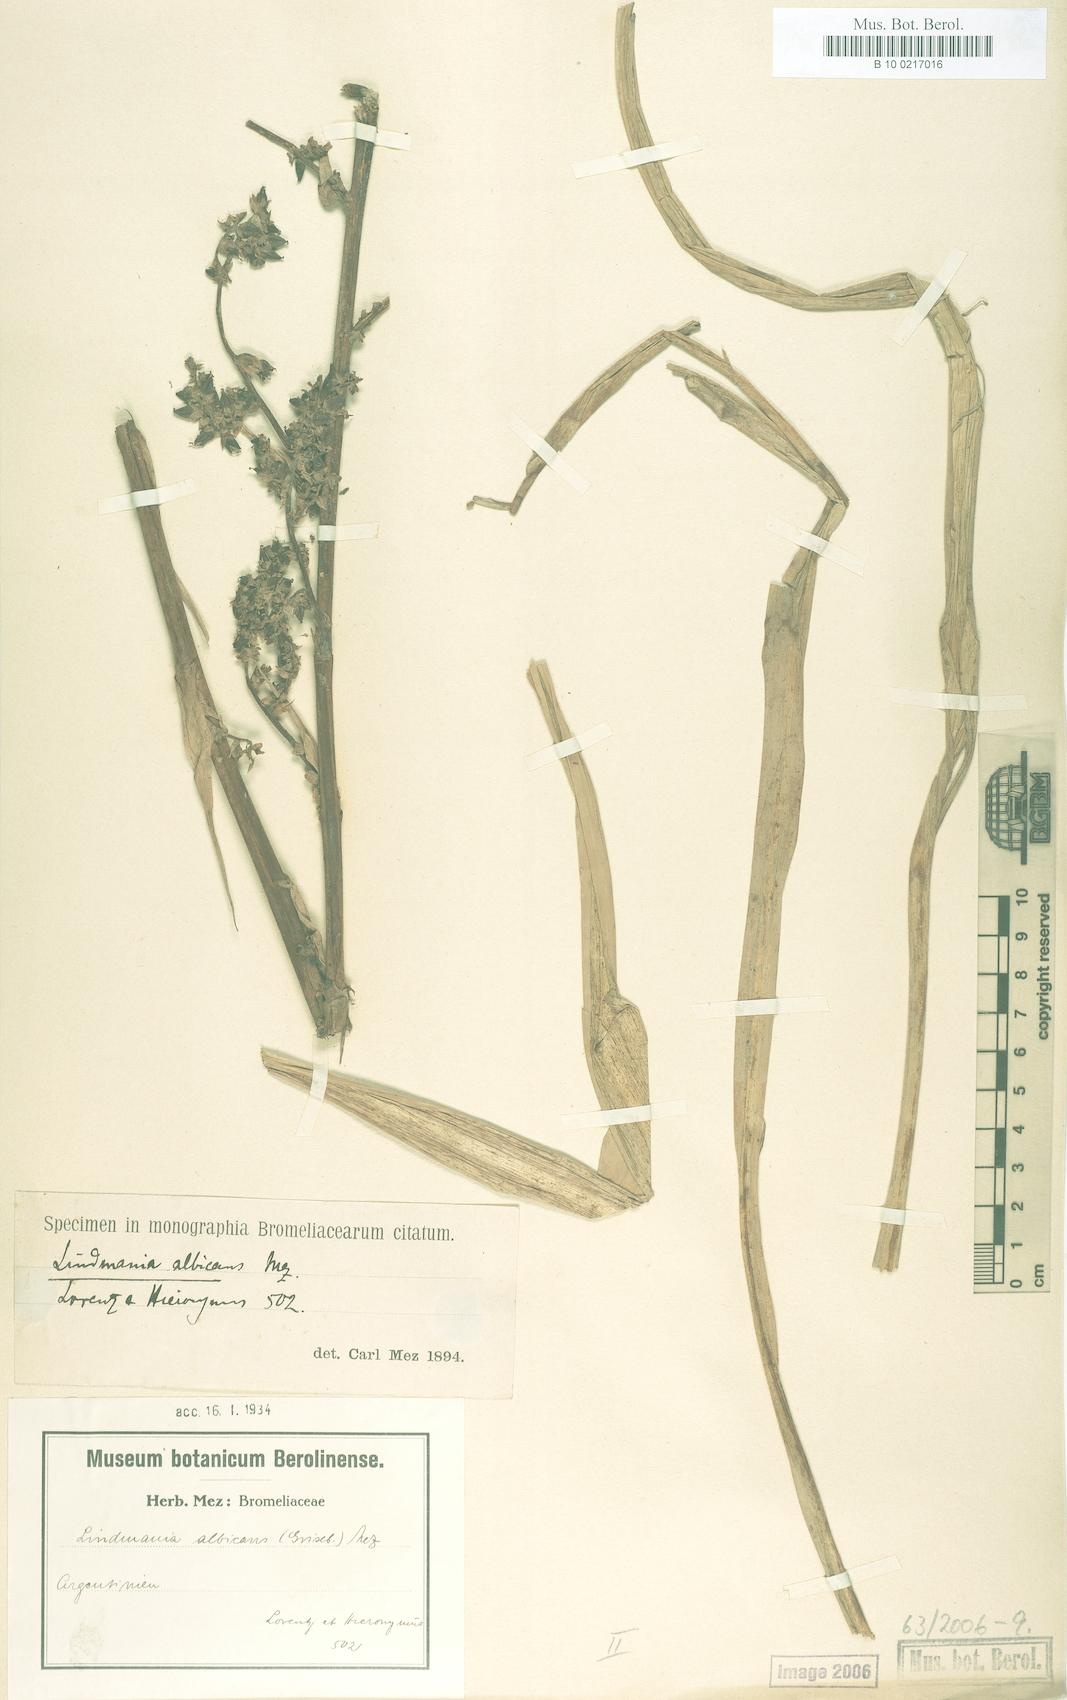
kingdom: Plantae
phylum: Tracheophyta
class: Liliopsida
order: Poales
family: Bromeliaceae
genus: Fosterella
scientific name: Fosterella albicans
